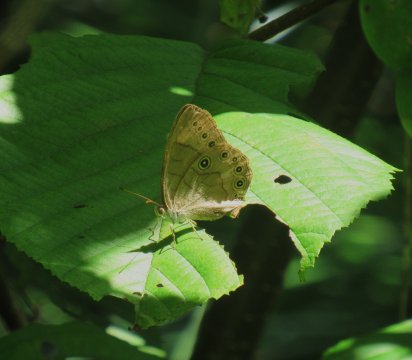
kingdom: Animalia
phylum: Arthropoda
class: Insecta
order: Lepidoptera
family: Nymphalidae
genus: Lethe
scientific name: Lethe eurydice
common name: Appalachian Eyed Brown
